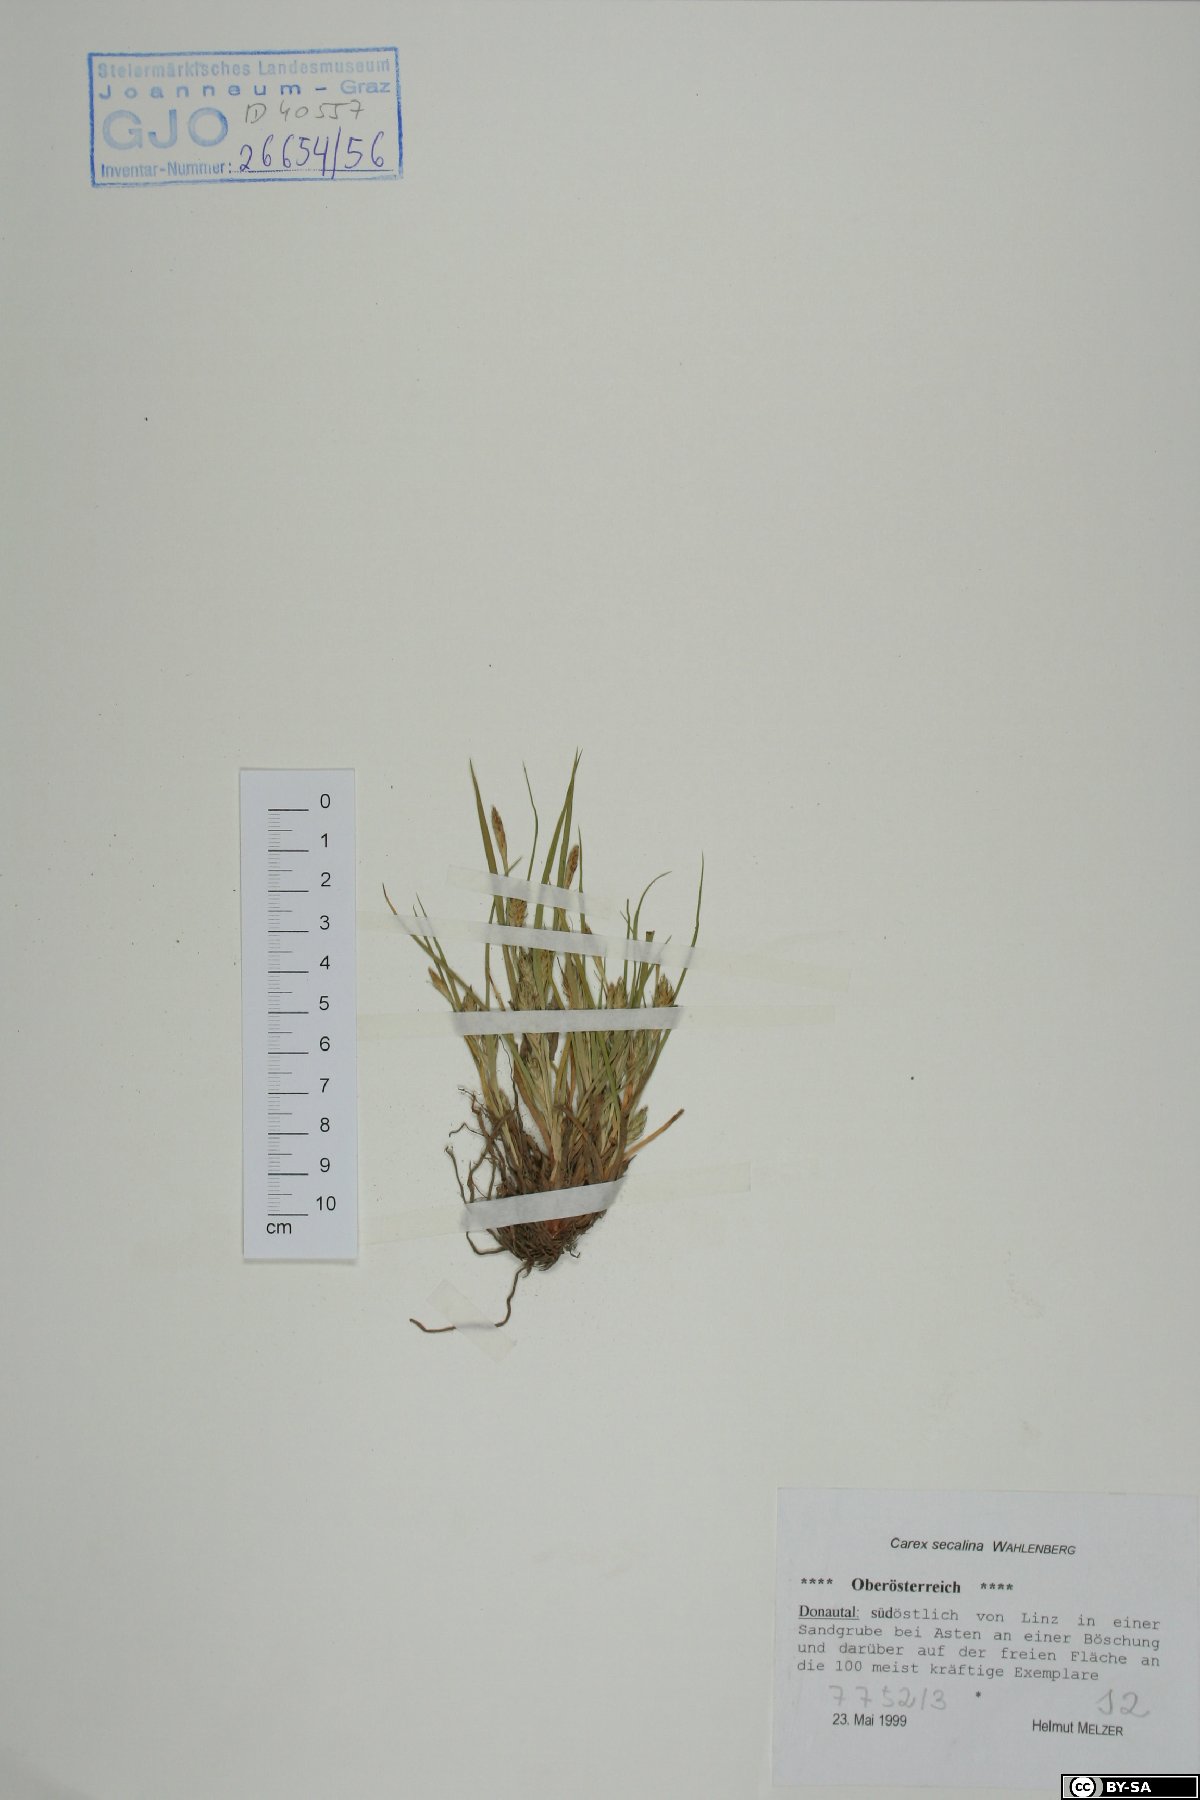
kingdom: Plantae
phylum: Tracheophyta
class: Liliopsida
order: Poales
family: Cyperaceae
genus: Carex
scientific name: Carex secalina
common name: Rye sedge
